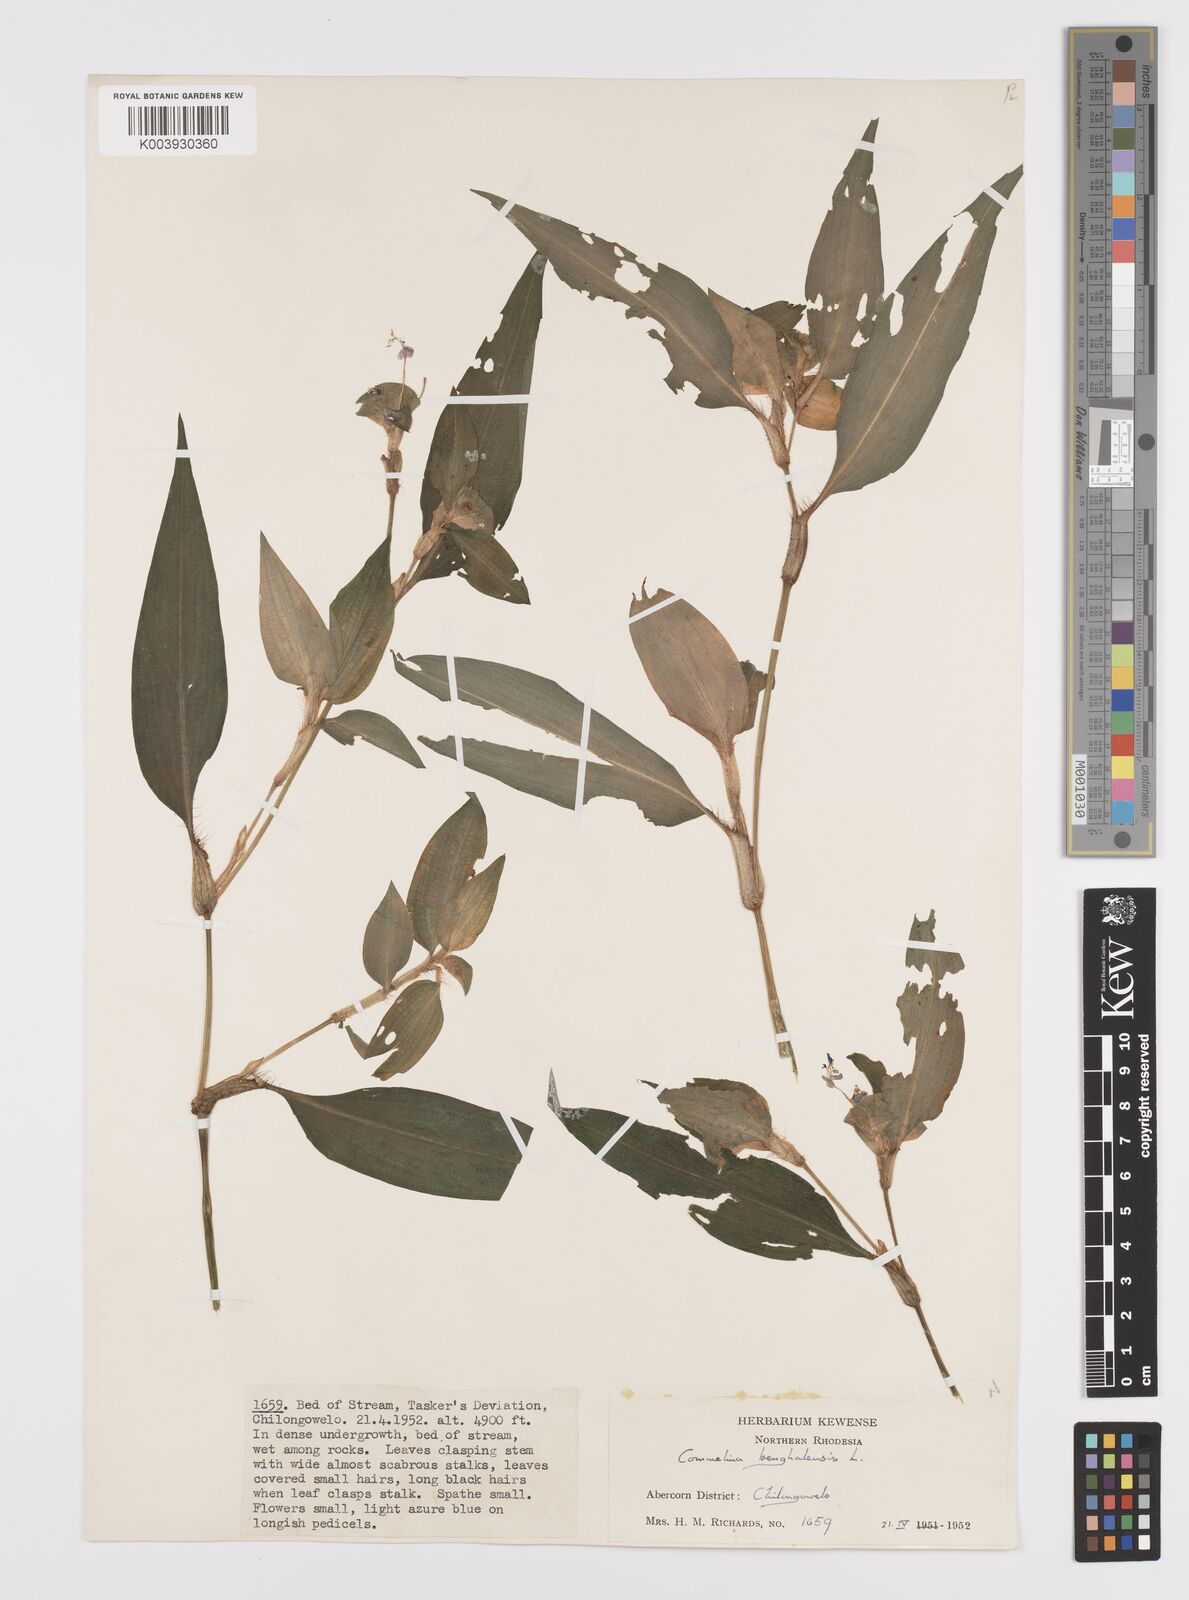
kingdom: Plantae
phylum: Tracheophyta
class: Liliopsida
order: Commelinales
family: Commelinaceae
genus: Commelina
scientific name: Commelina benghalensis
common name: Jio
